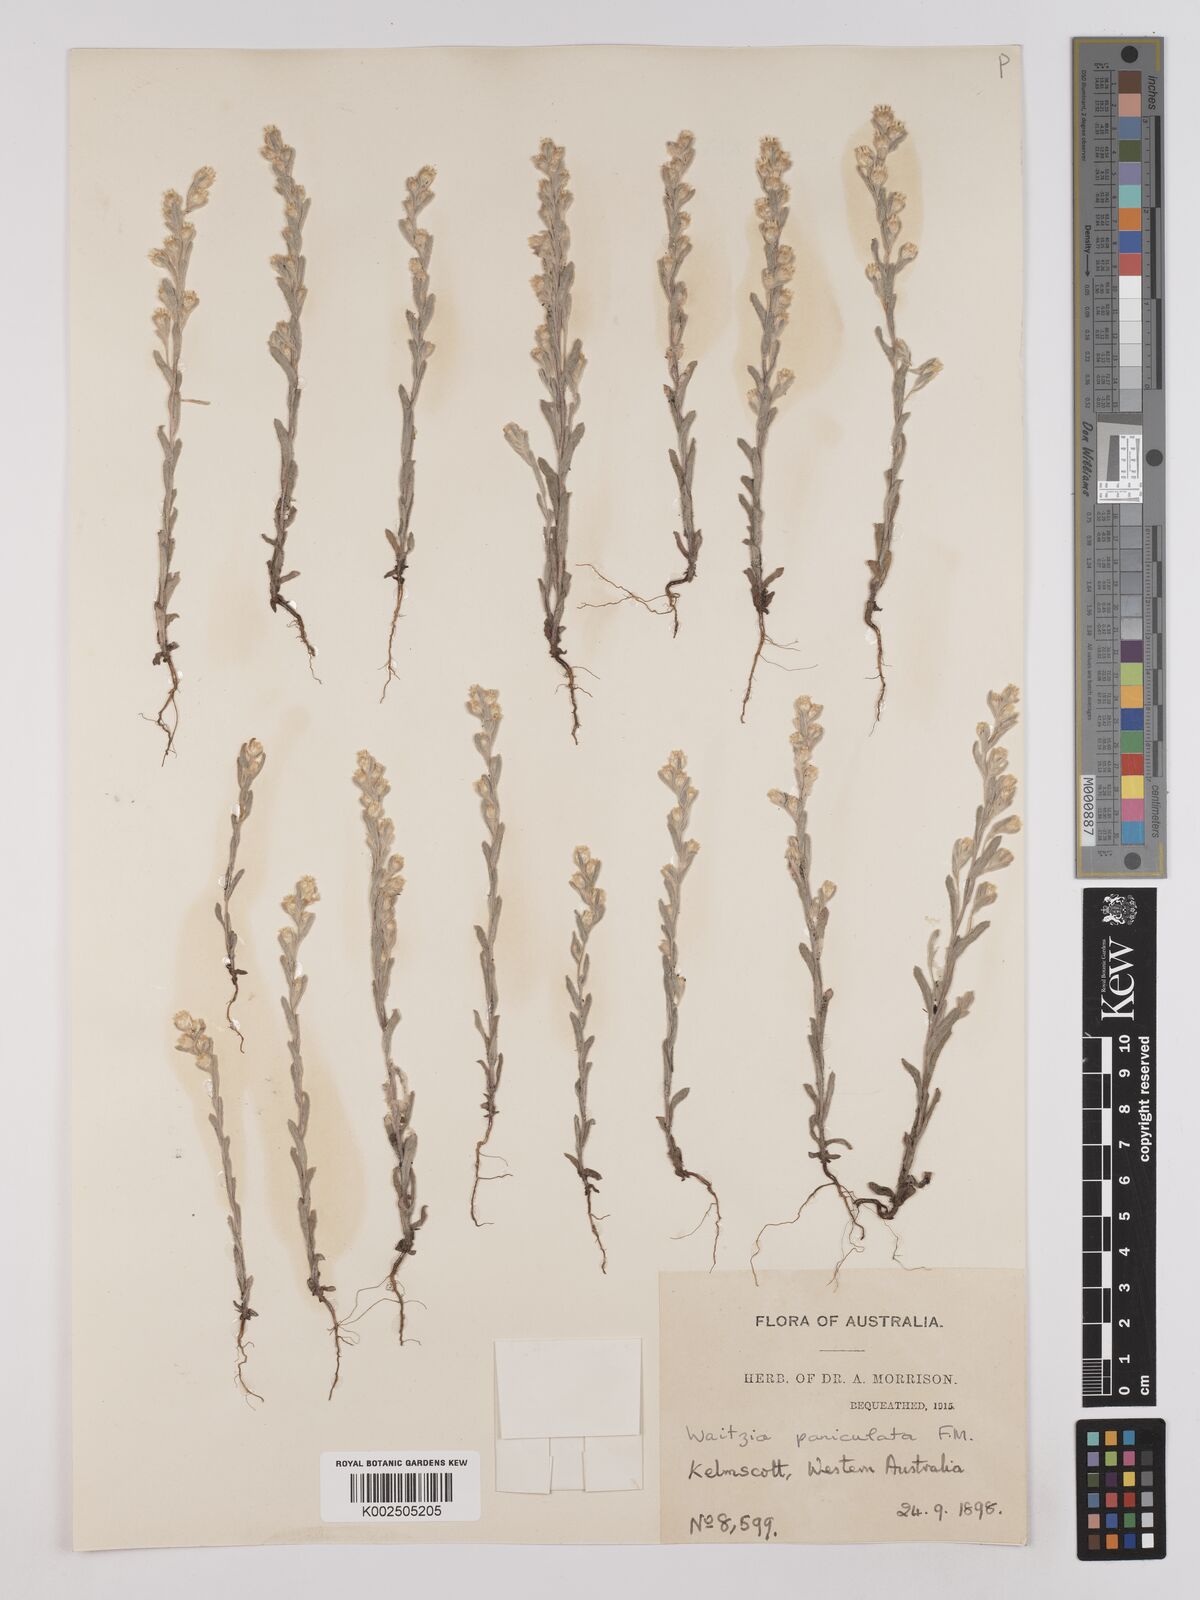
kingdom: Plantae
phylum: Tracheophyta
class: Magnoliopsida
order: Asterales
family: Asteraceae
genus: Pterochaeta
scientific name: Pterochaeta paniculata
